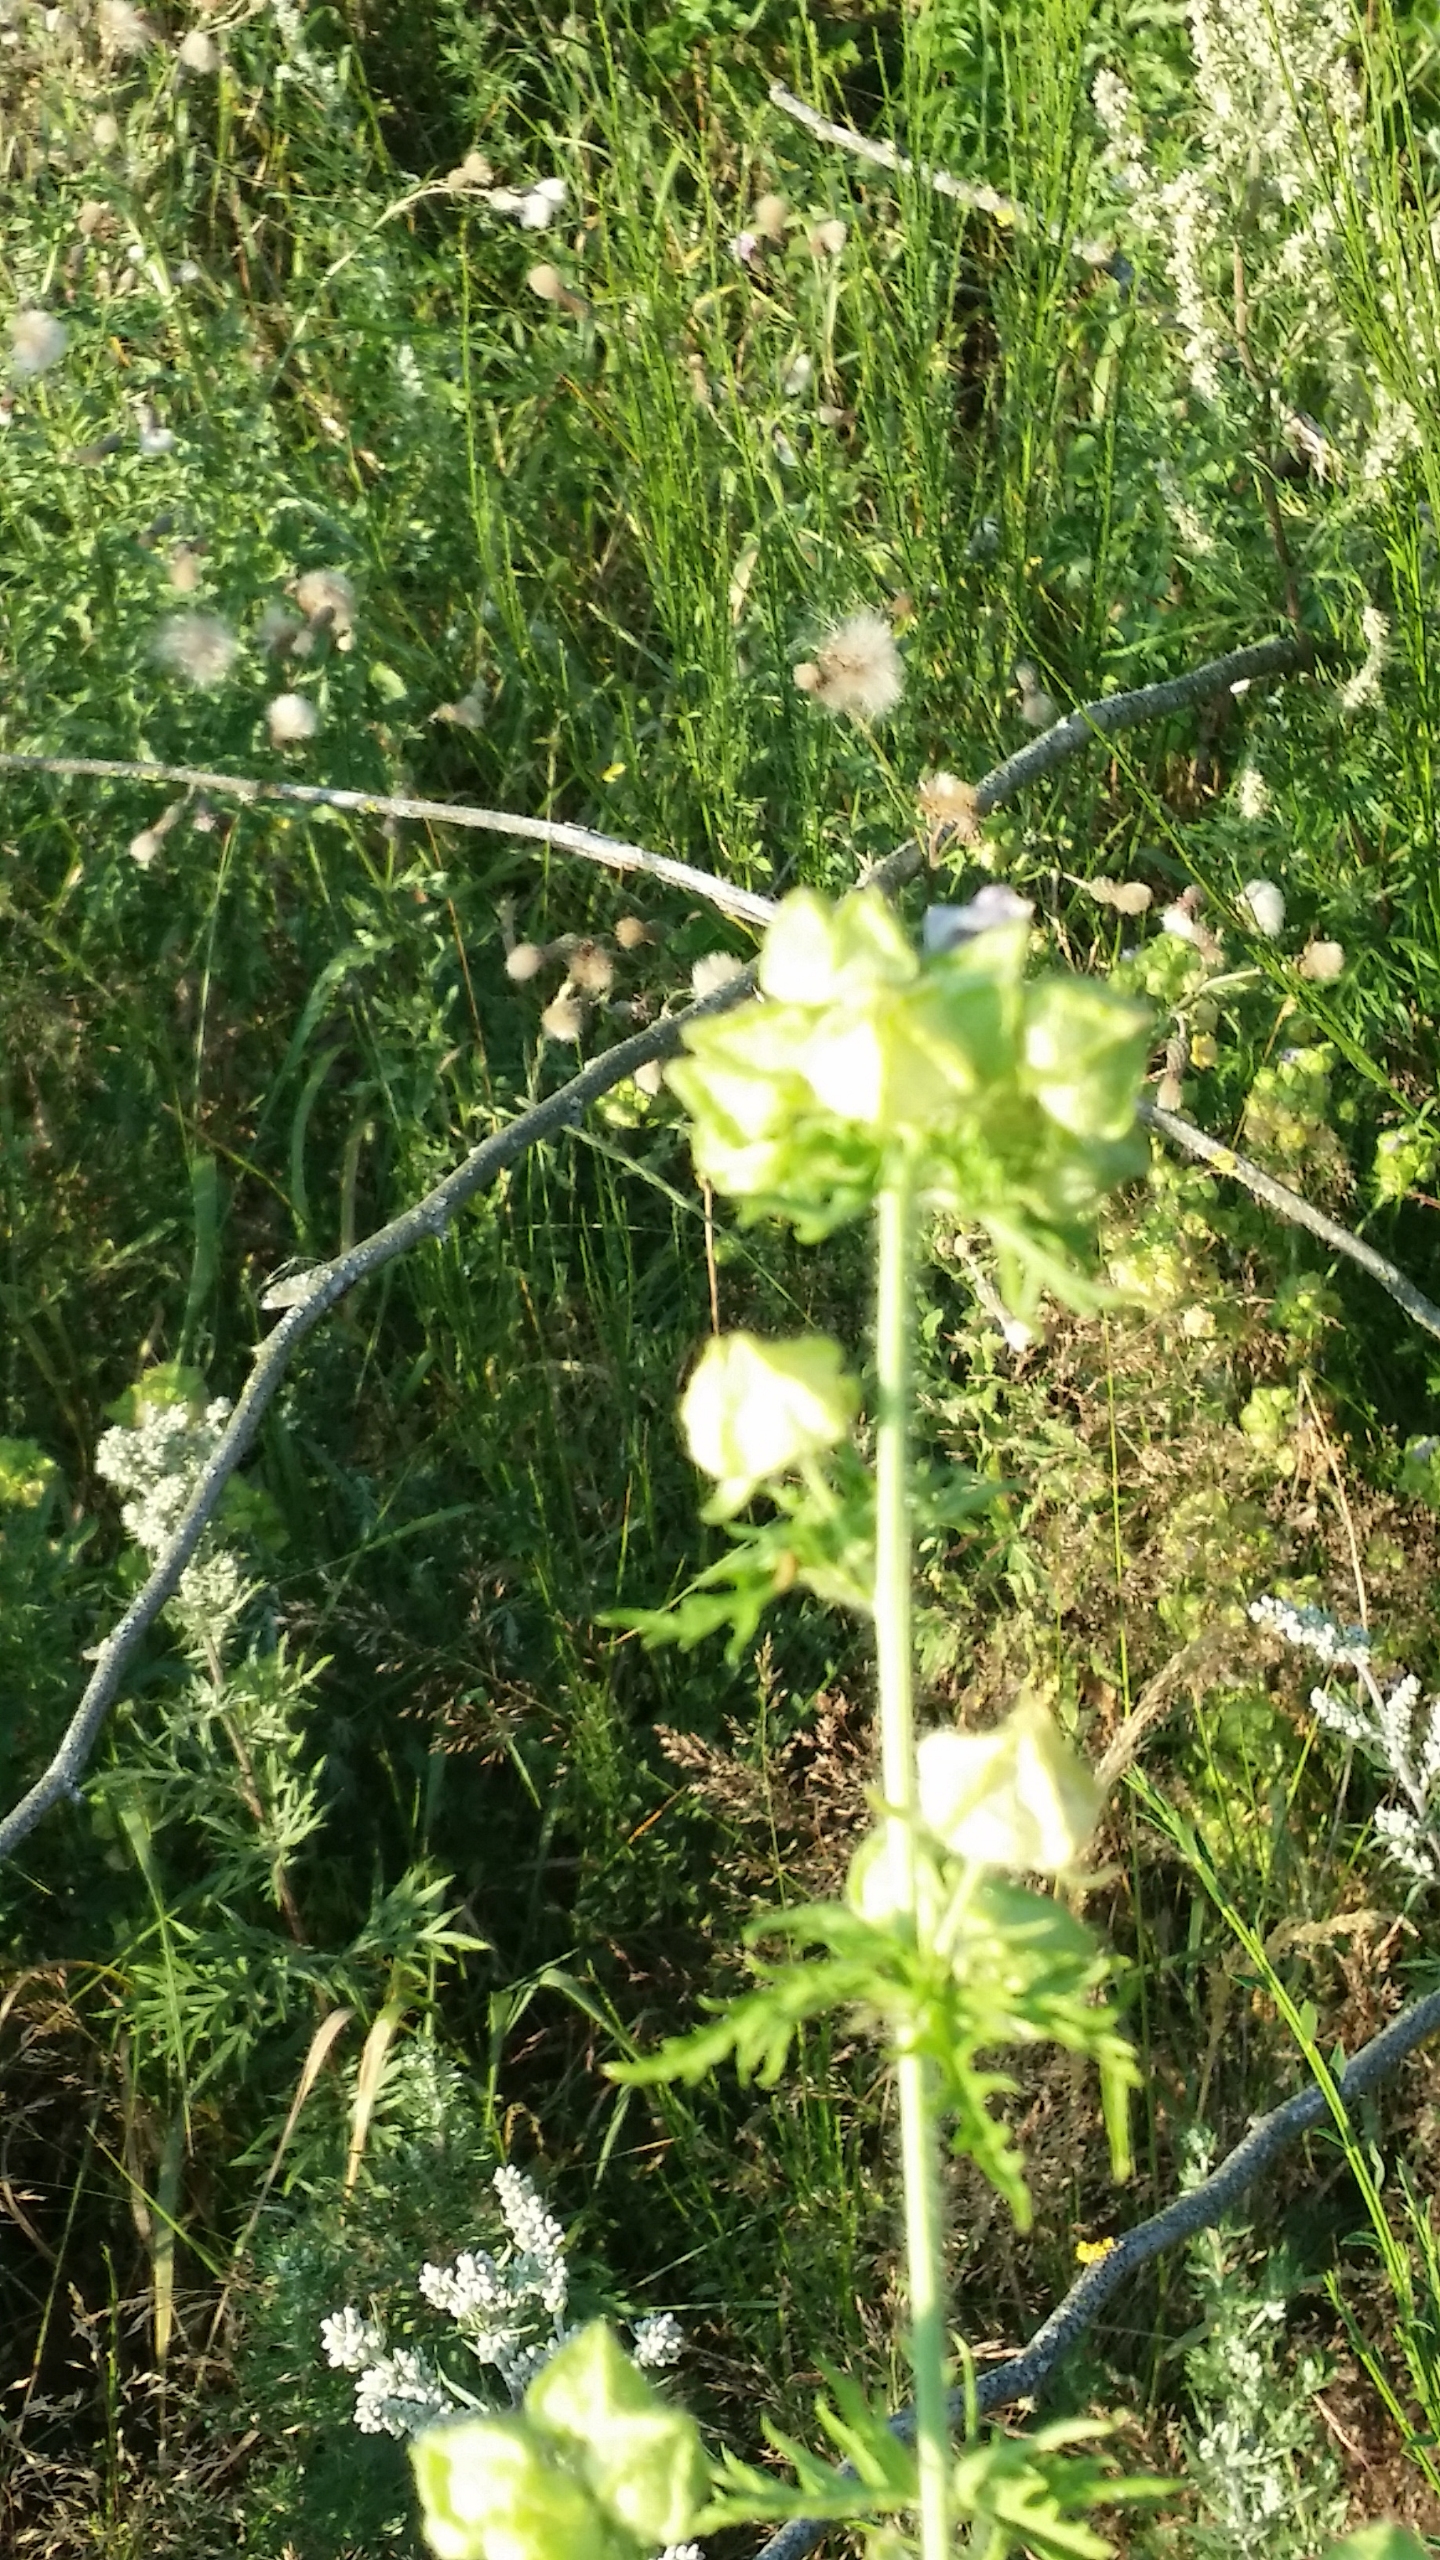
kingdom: Plantae
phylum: Tracheophyta
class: Magnoliopsida
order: Malvales
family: Malvaceae
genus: Malva
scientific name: Malva moschata
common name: Moskus-katost
